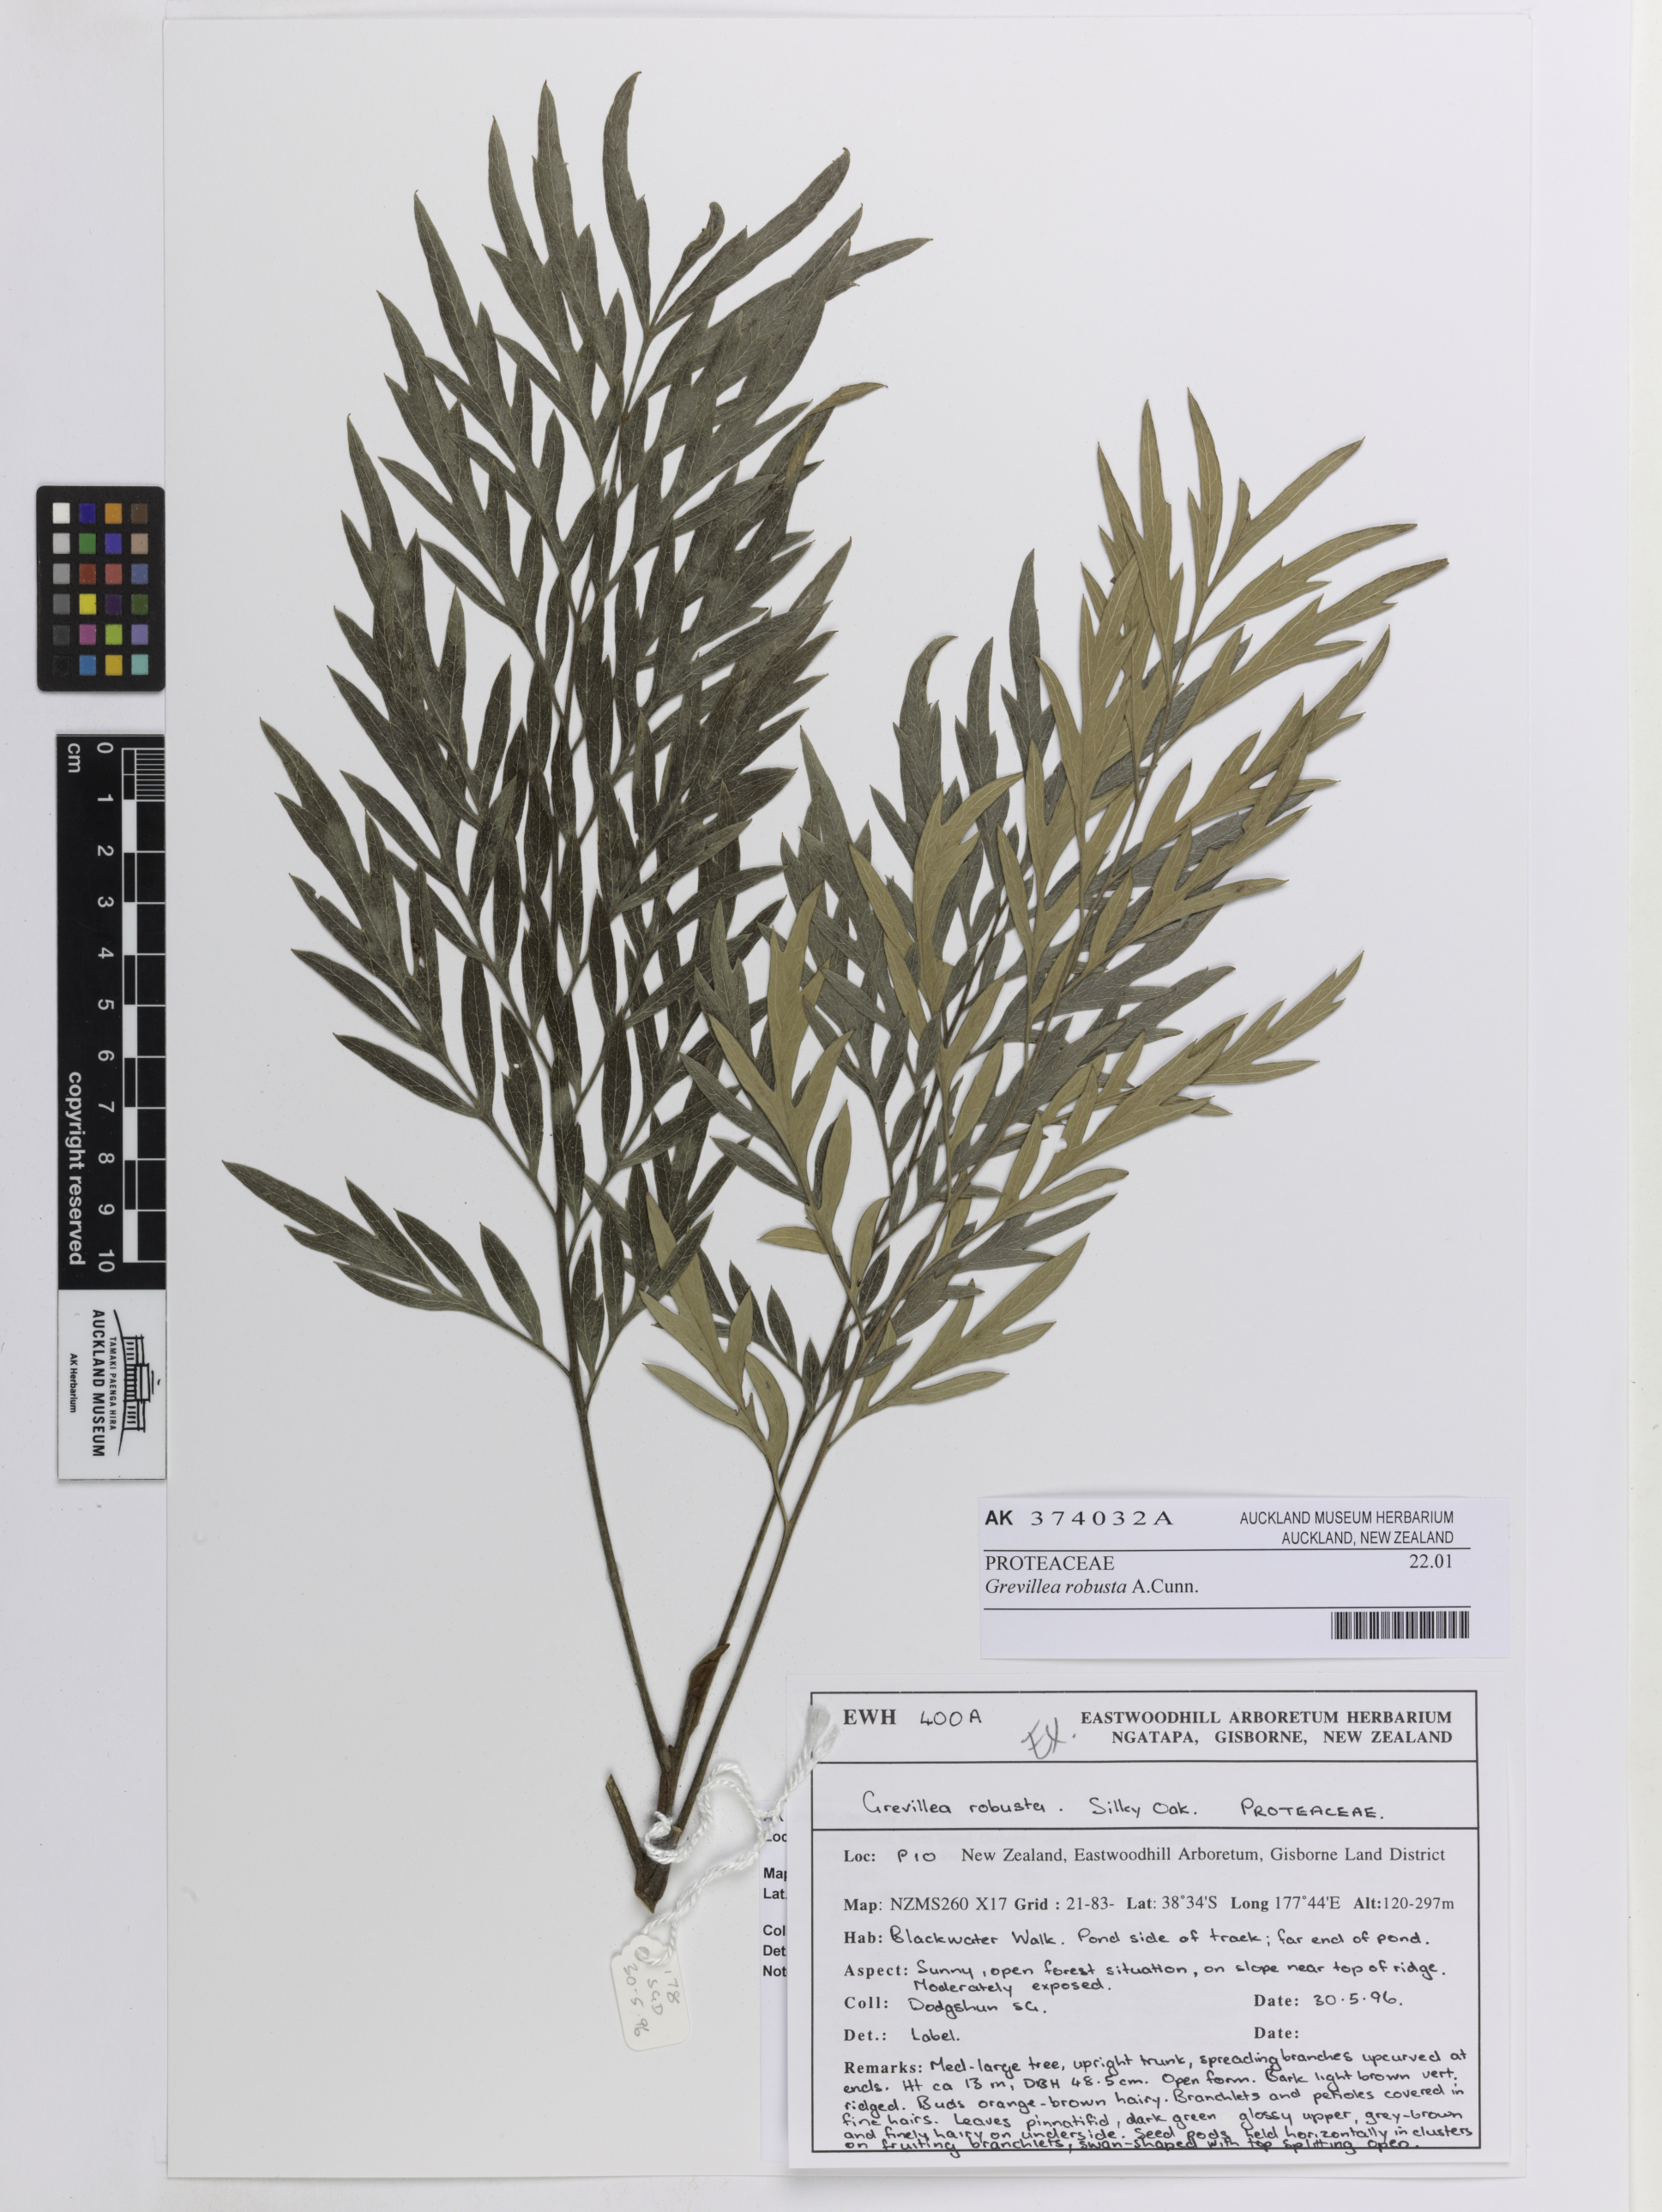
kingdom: Plantae
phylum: Tracheophyta
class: Magnoliopsida
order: Proteales
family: Proteaceae
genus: Grevillea
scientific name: Grevillea robusta
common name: Silkoak
